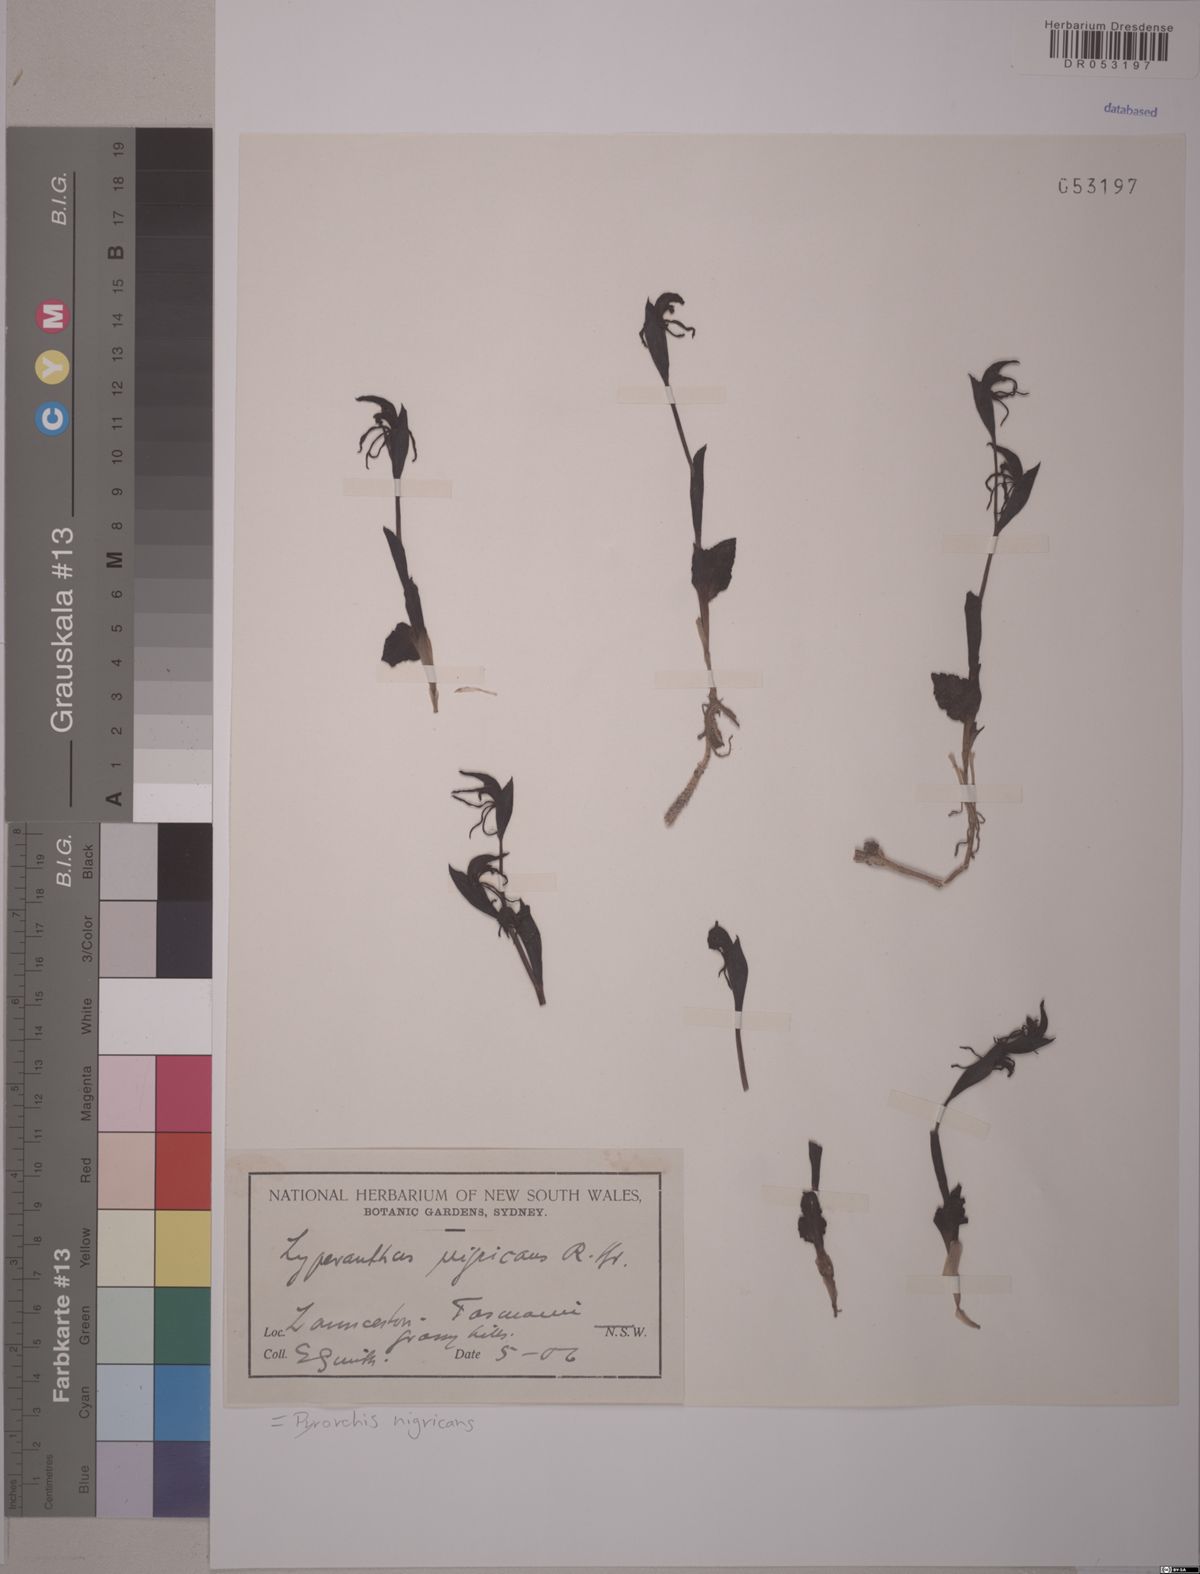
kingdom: Plantae
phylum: Tracheophyta
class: Liliopsida
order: Asparagales
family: Orchidaceae
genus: Pyrorchis
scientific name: Pyrorchis nigricans
